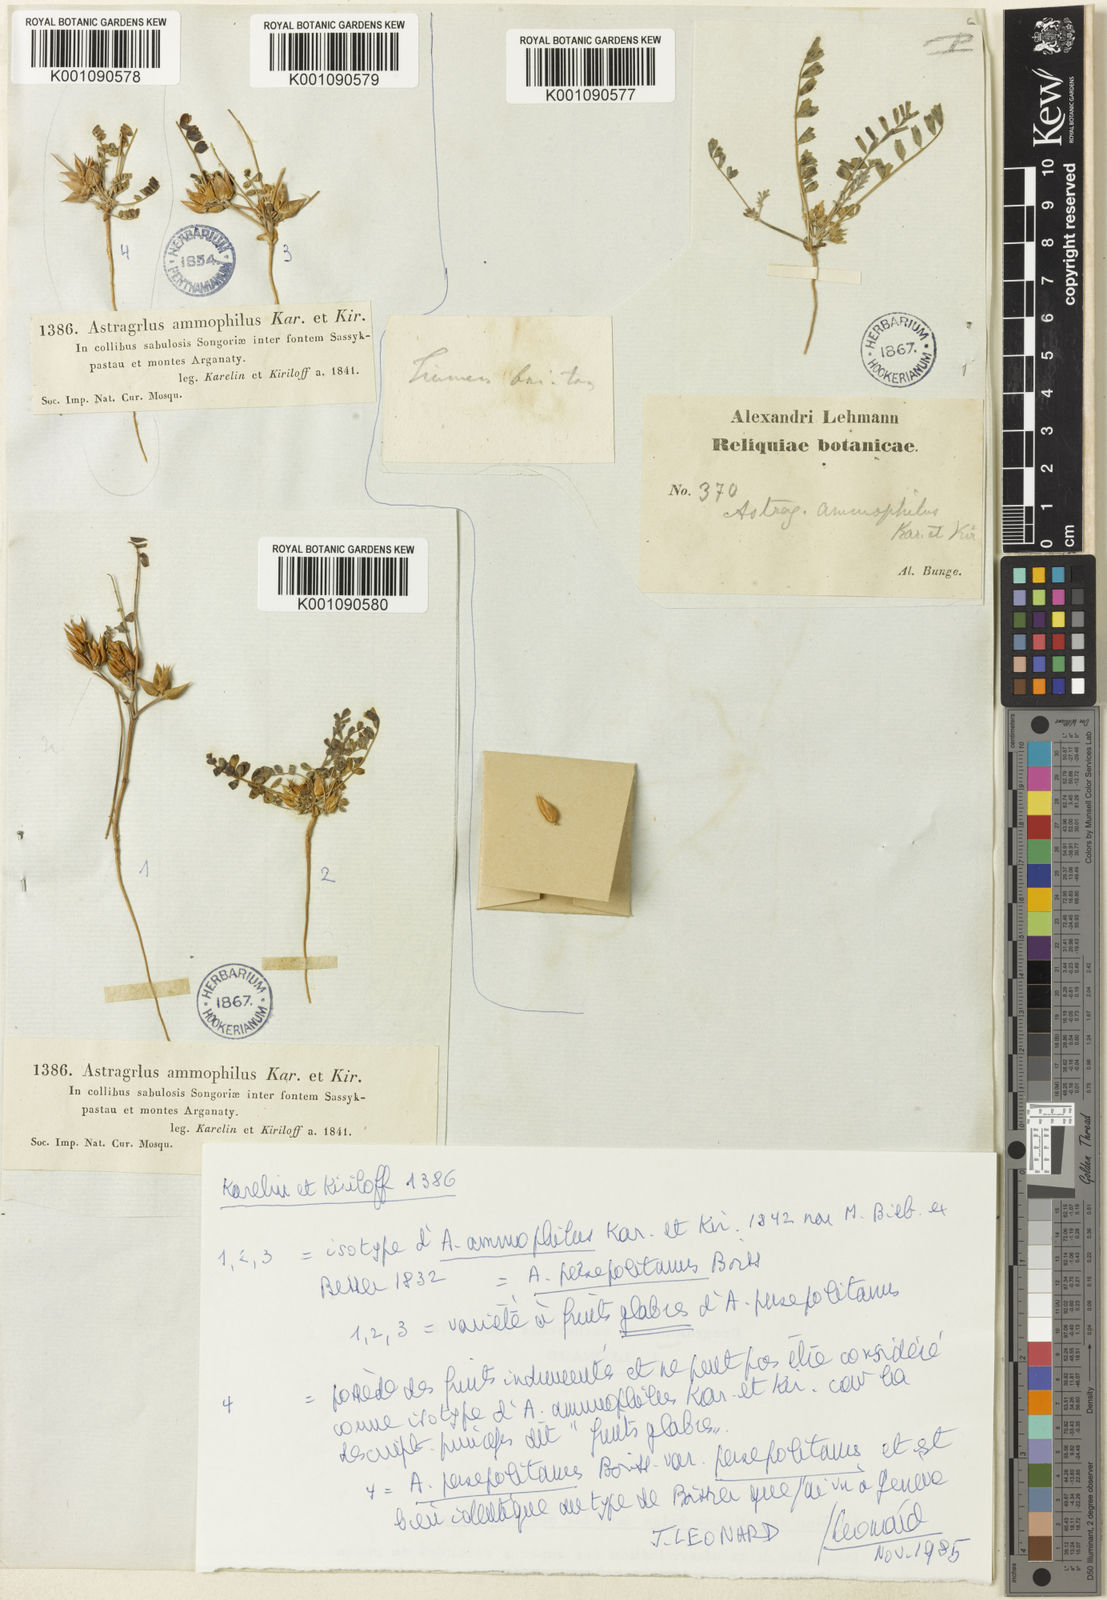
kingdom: Plantae
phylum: Tracheophyta
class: Magnoliopsida
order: Fabales
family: Fabaceae
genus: Astragalus
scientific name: Astragalus
